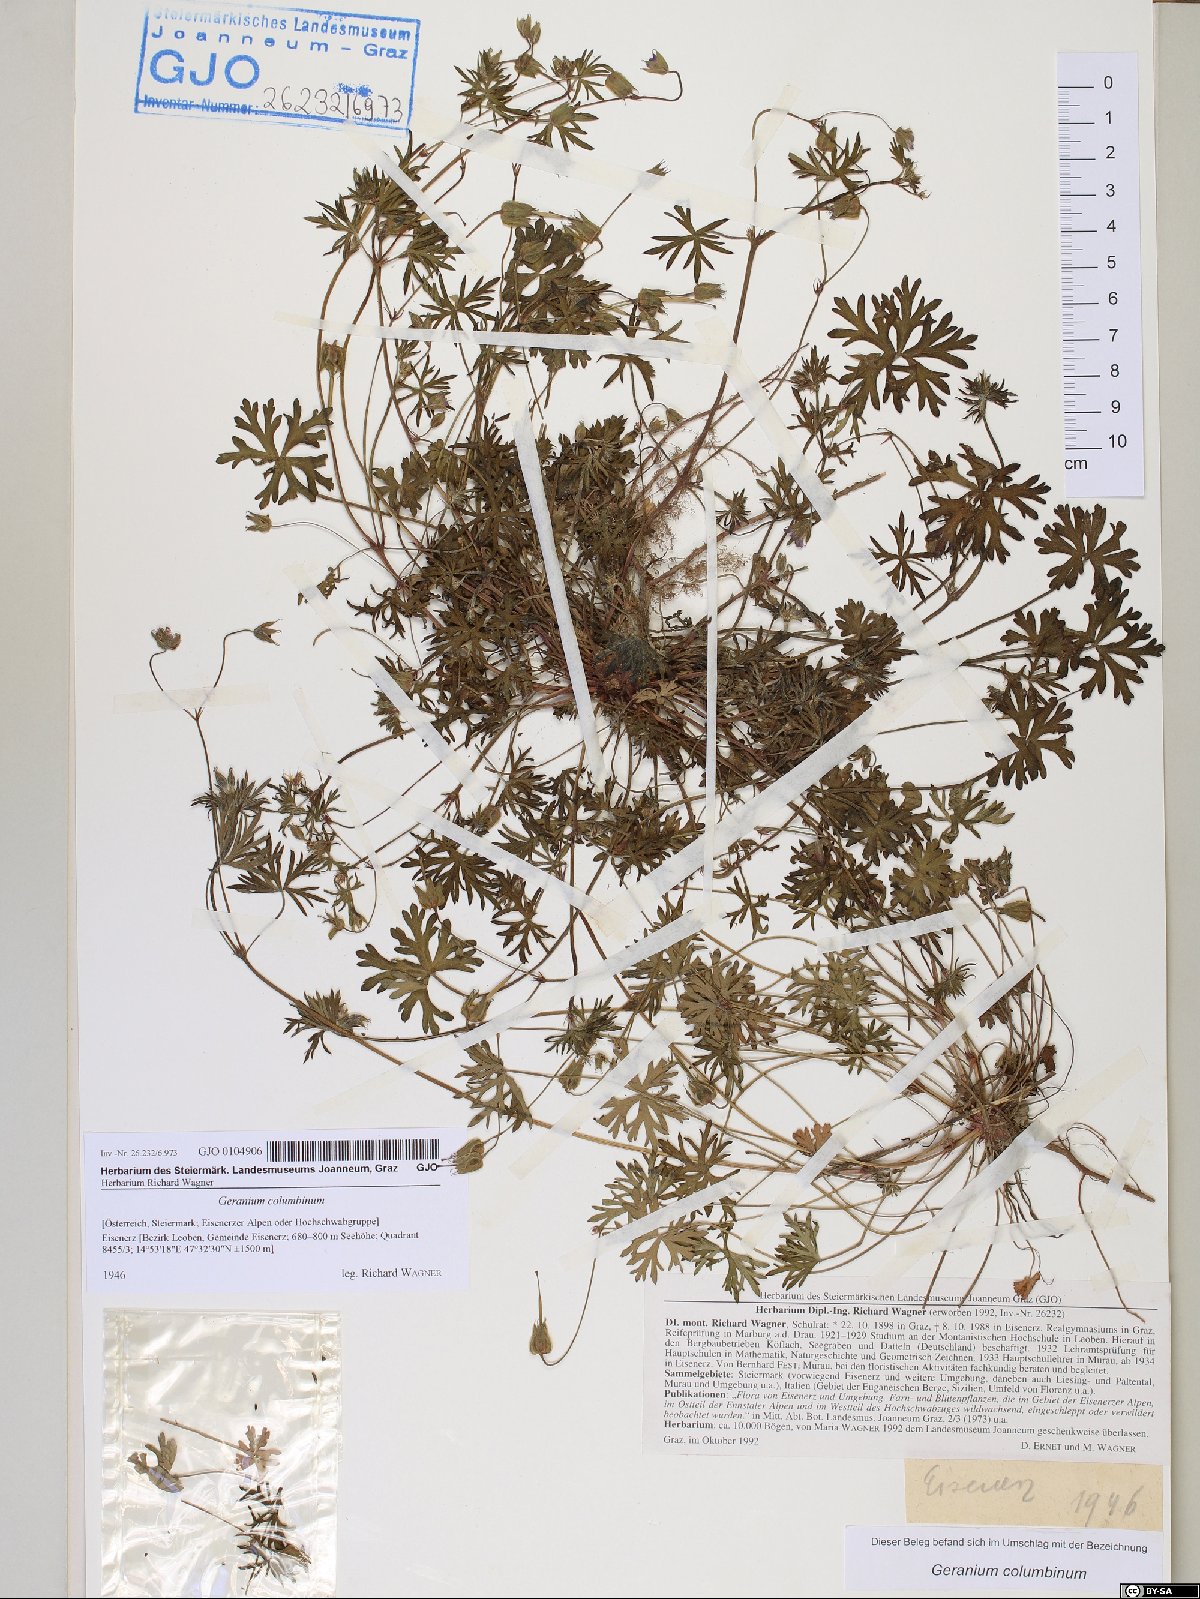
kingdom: Plantae
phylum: Tracheophyta
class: Magnoliopsida
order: Geraniales
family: Geraniaceae
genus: Geranium
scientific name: Geranium columbinum
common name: Long-stalked crane's-bill
